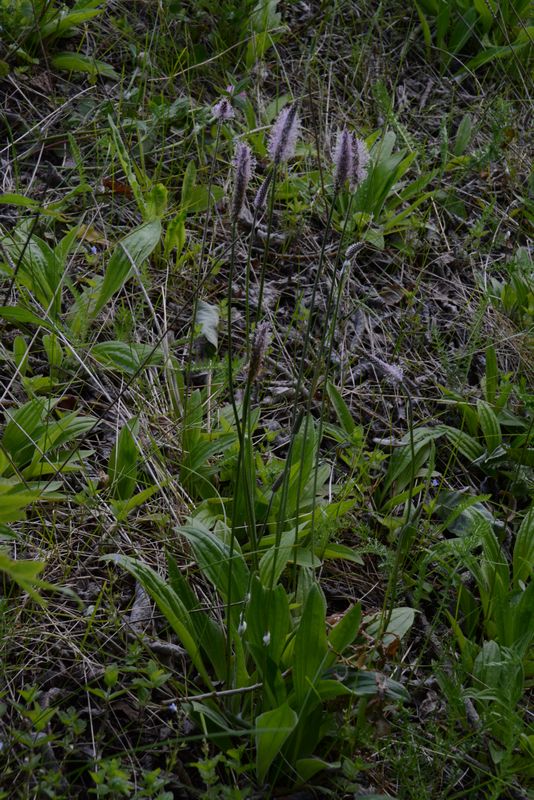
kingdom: Plantae
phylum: Tracheophyta
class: Magnoliopsida
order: Lamiales
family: Plantaginaceae
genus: Plantago
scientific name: Plantago media
